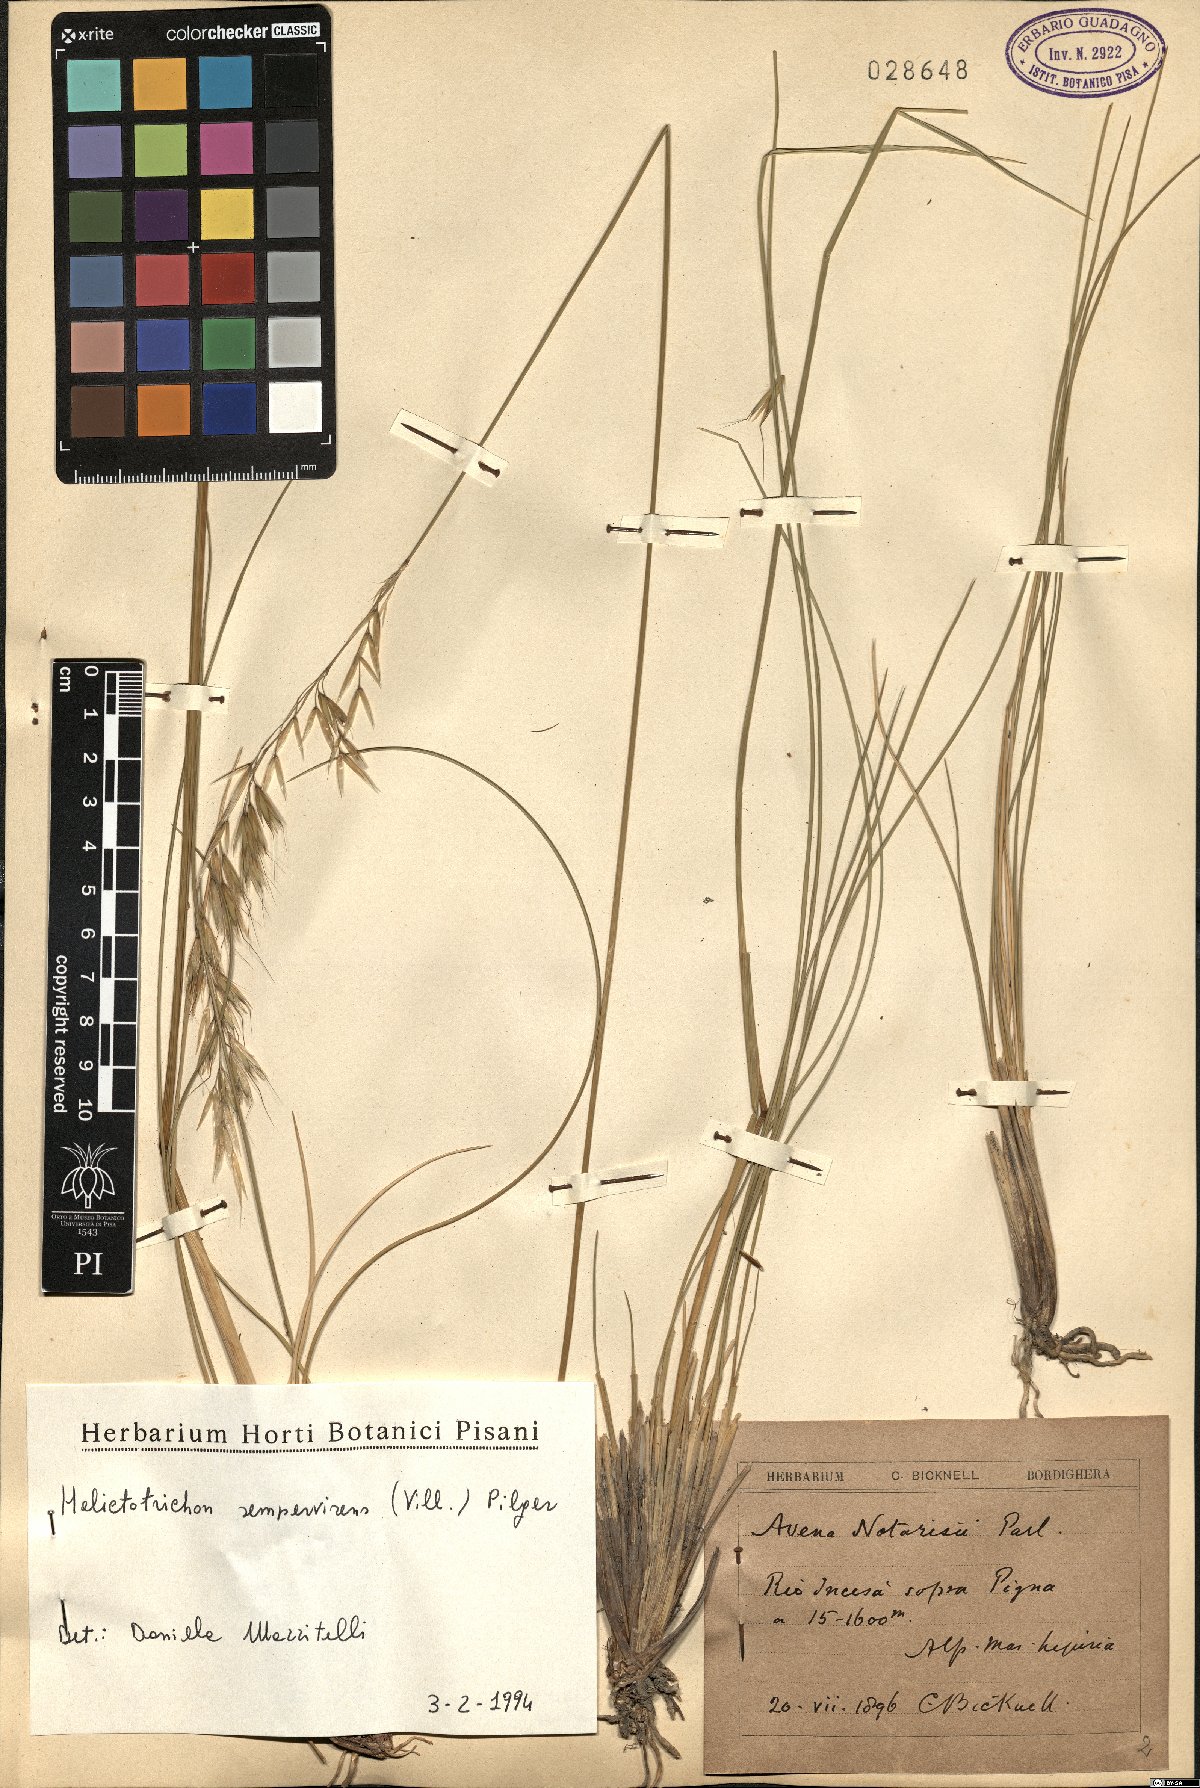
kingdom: Plantae
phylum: Tracheophyta
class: Liliopsida
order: Poales
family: Poaceae
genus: Helictotrichon
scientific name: Helictotrichon sempervirens
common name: Blue oat-grass
